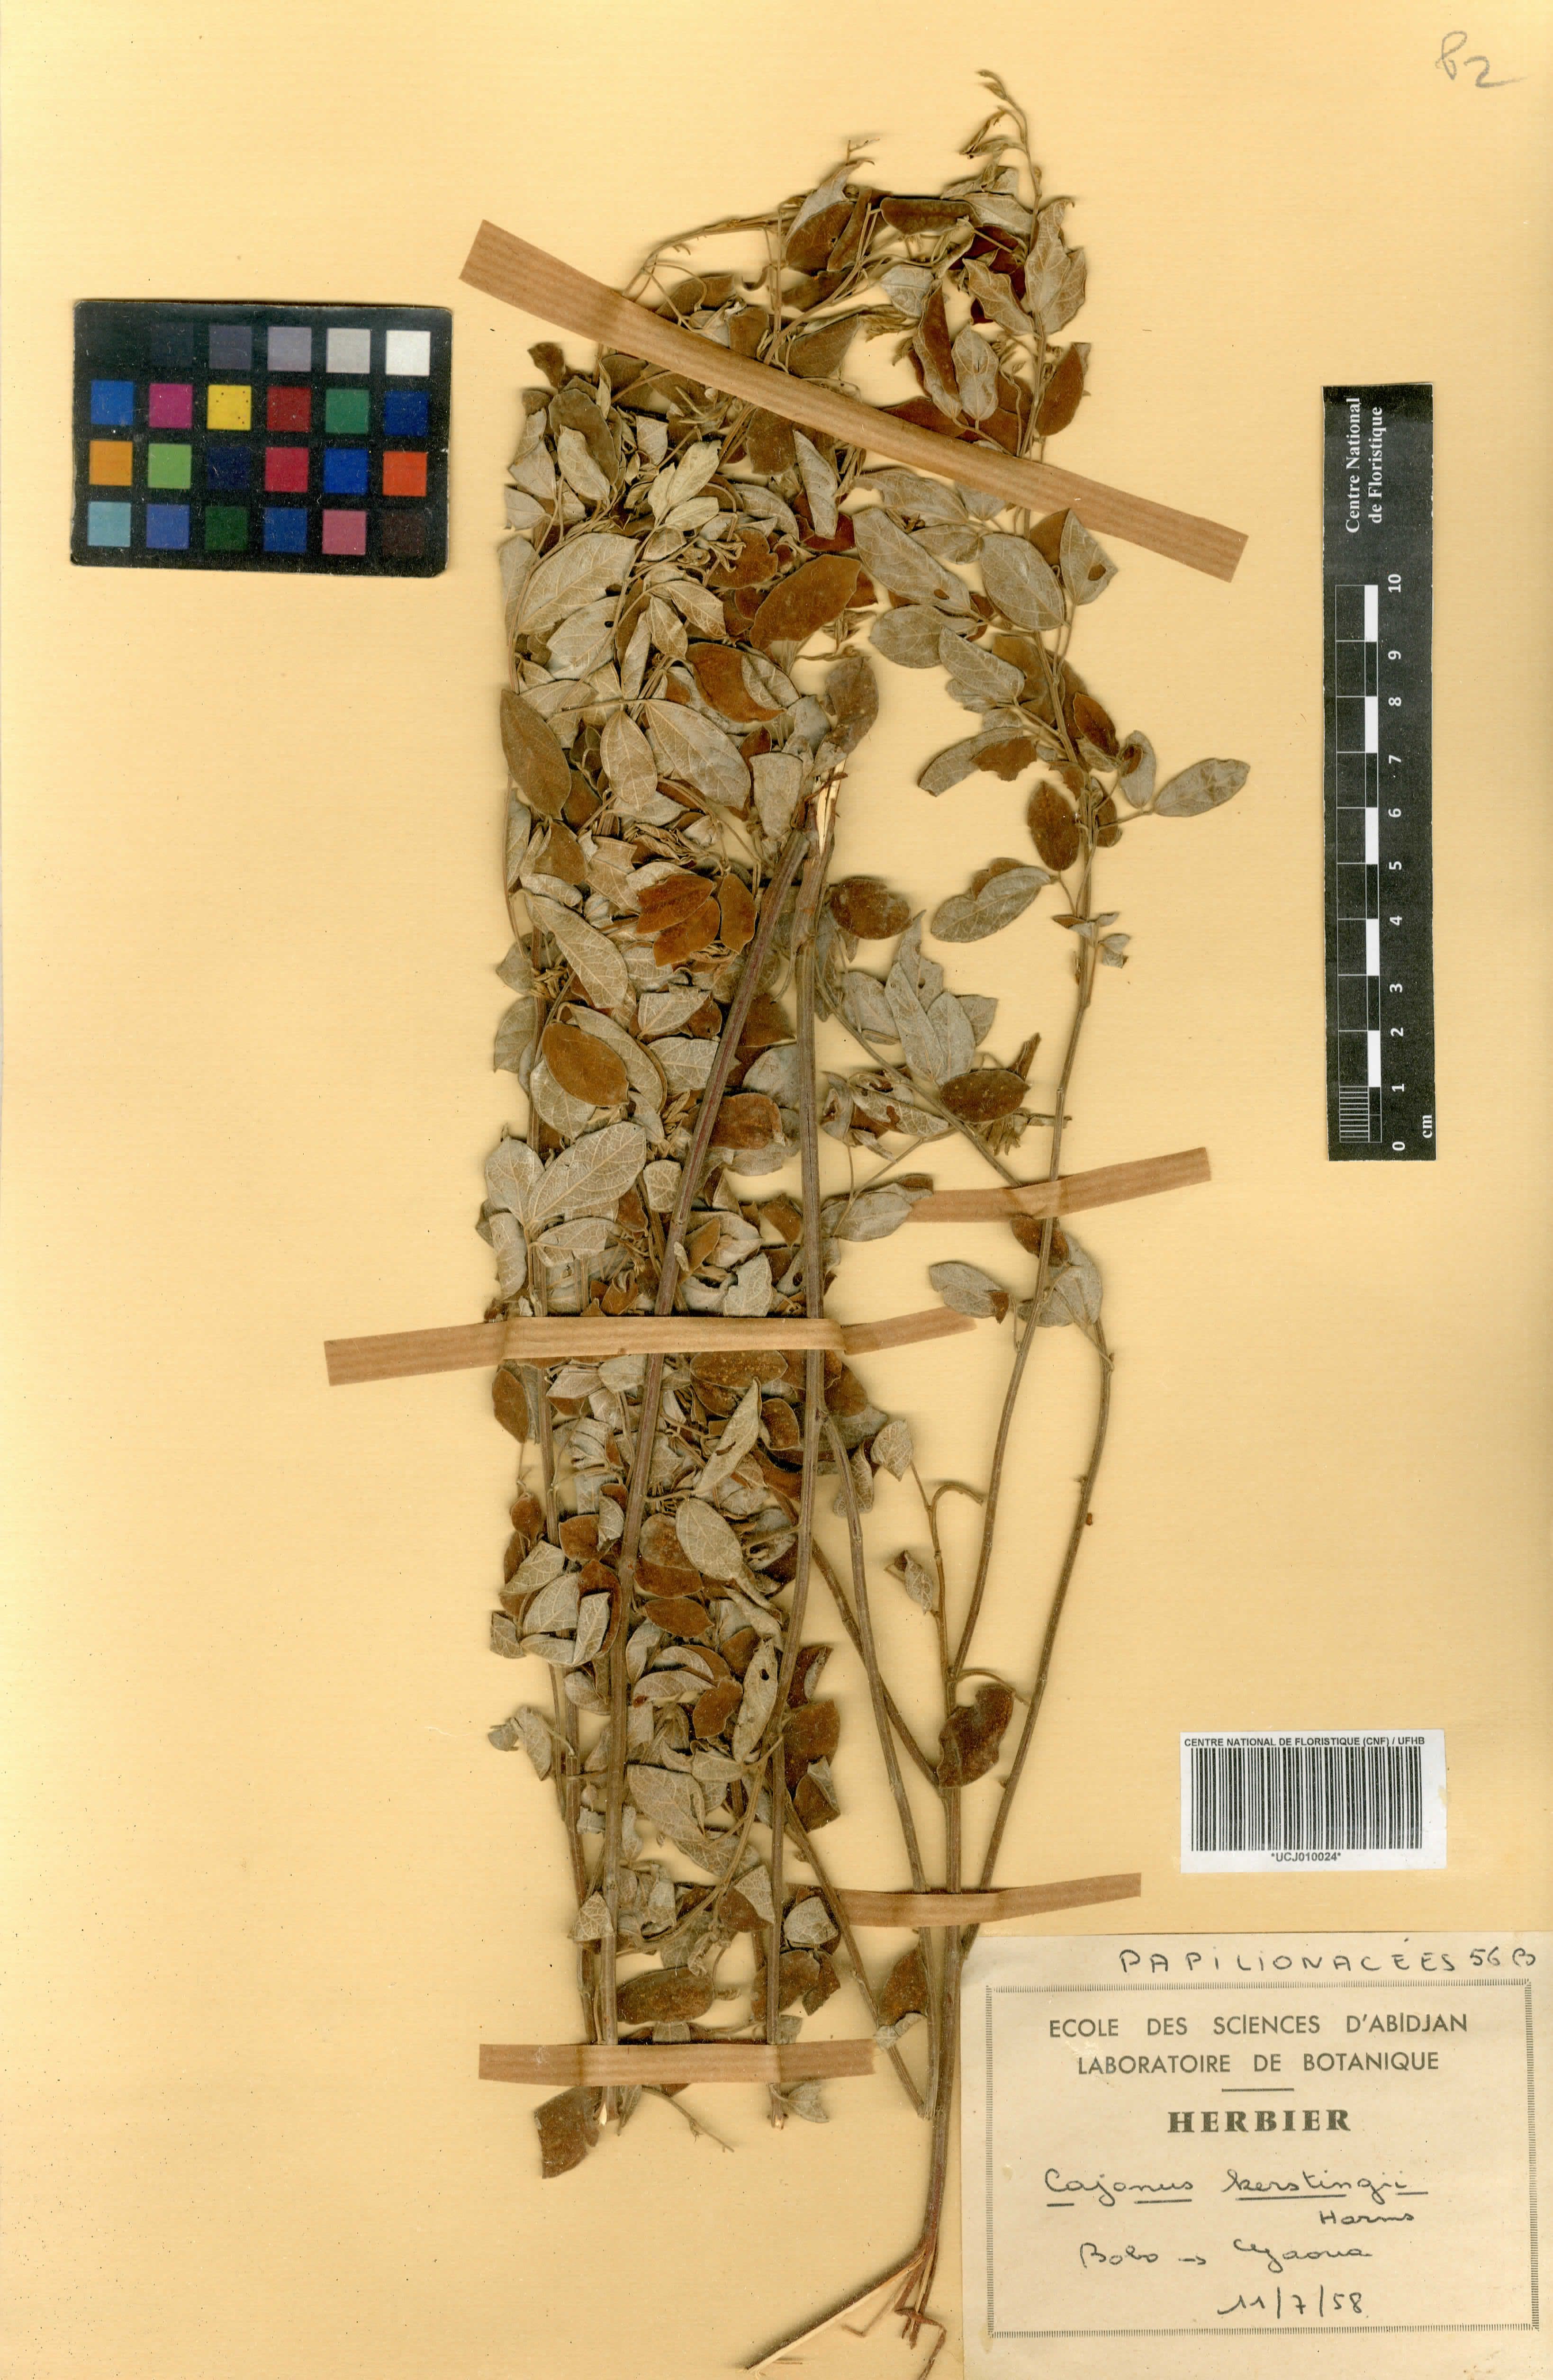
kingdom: Plantae
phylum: Tracheophyta
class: Magnoliopsida
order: Fabales
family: Fabaceae
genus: Cajanus
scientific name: Cajanus kerstingii
